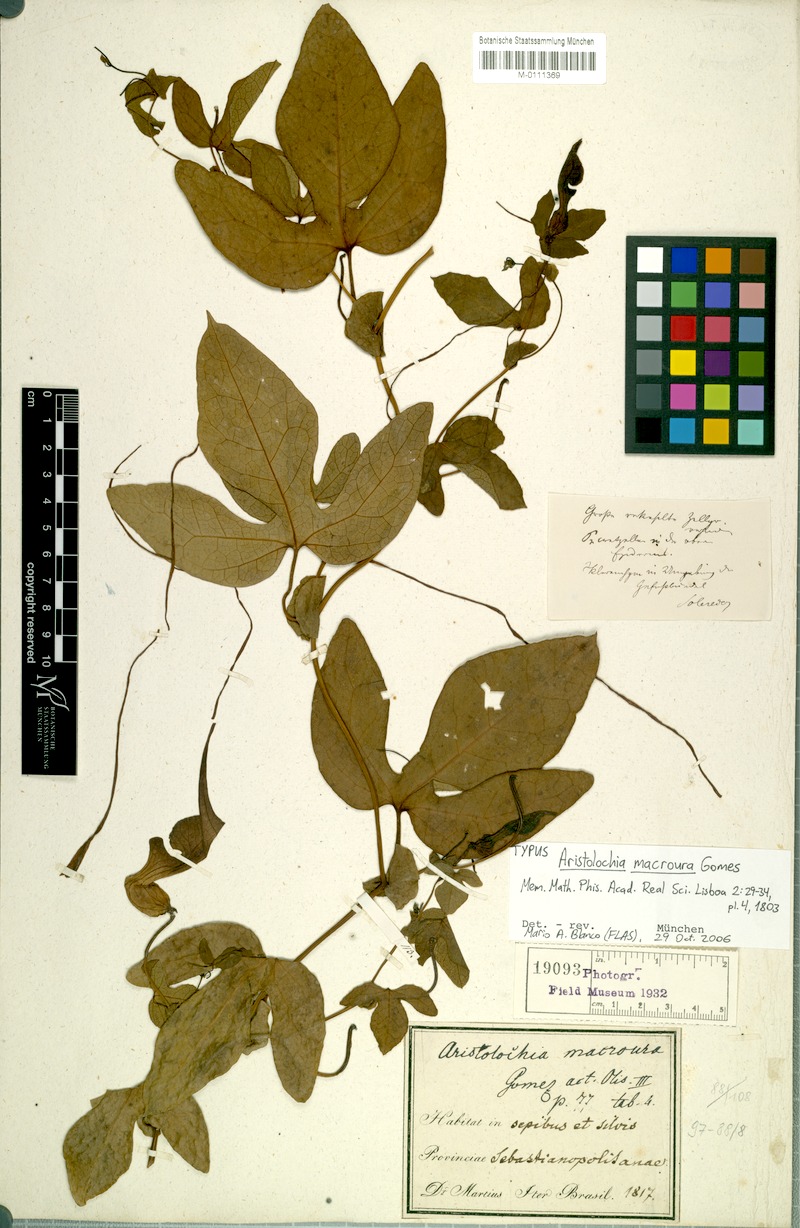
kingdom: Plantae
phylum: Tracheophyta
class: Magnoliopsida
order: Piperales
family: Aristolochiaceae
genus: Aristolochia
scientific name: Aristolochia macroura
